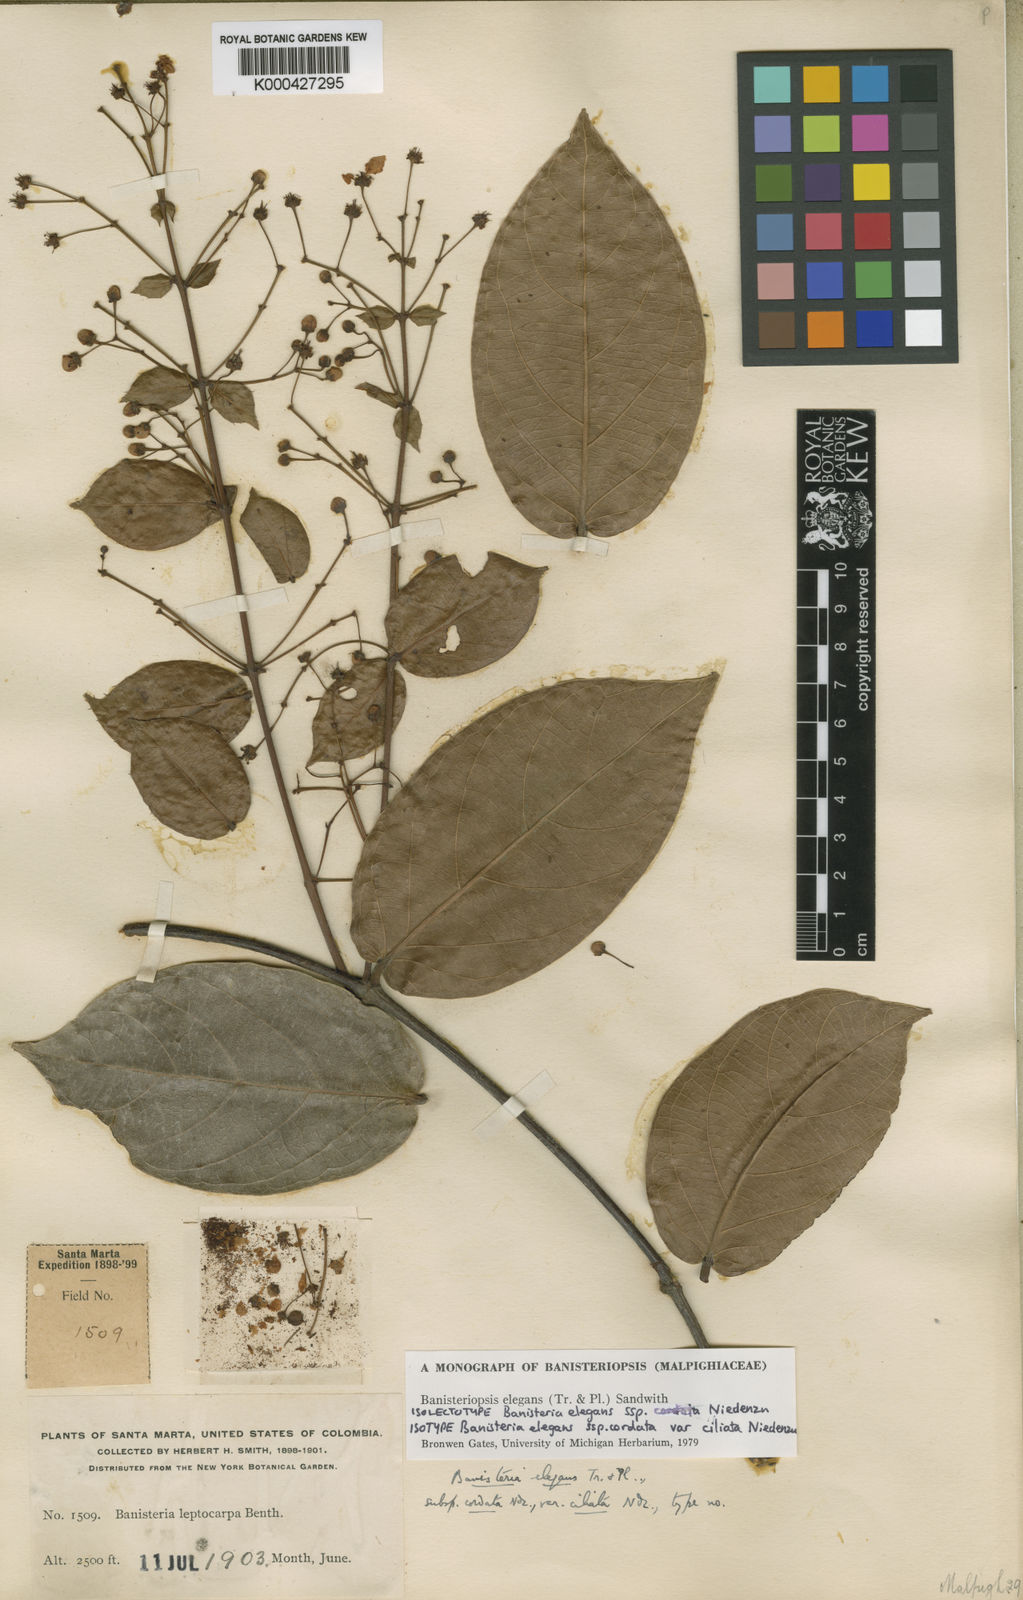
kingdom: Plantae
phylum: Tracheophyta
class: Magnoliopsida
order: Malpighiales
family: Malpighiaceae
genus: Banisteriopsis
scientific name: Banisteriopsis elegans
